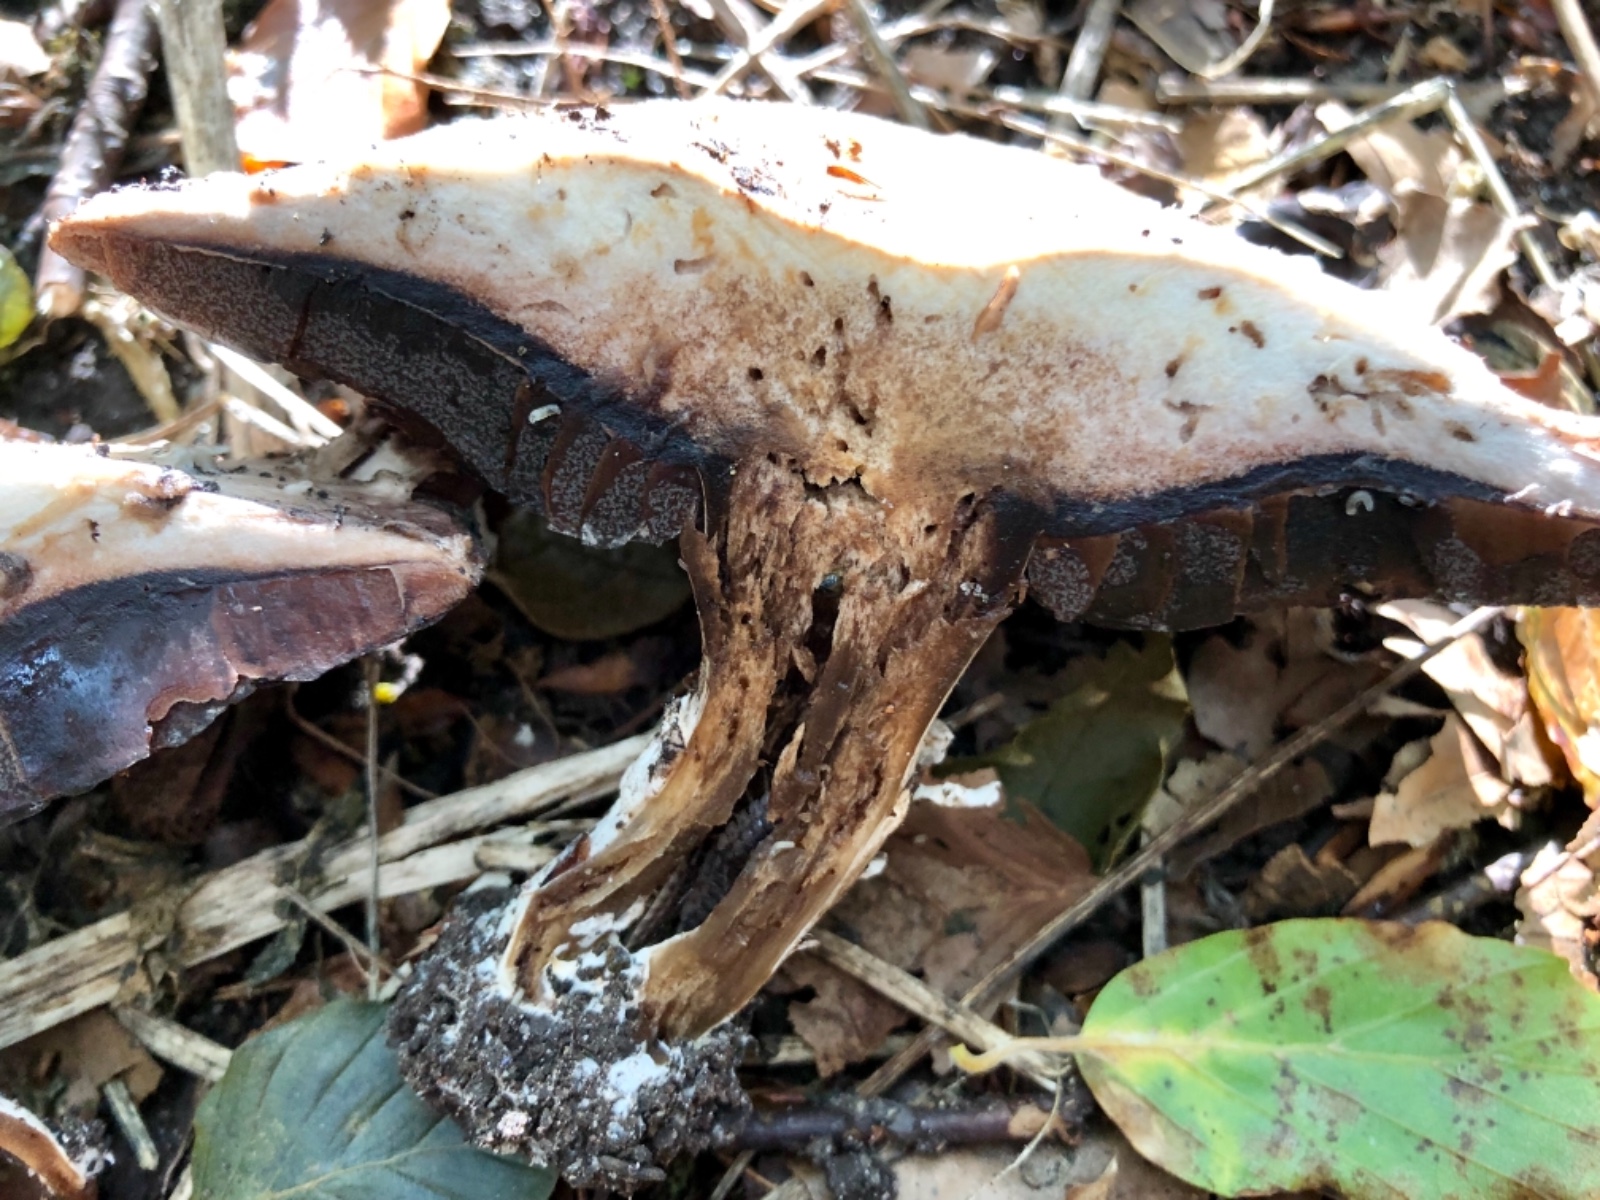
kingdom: Fungi
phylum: Basidiomycota
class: Agaricomycetes
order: Agaricales
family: Agaricaceae
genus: Agaricus
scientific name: Agaricus
